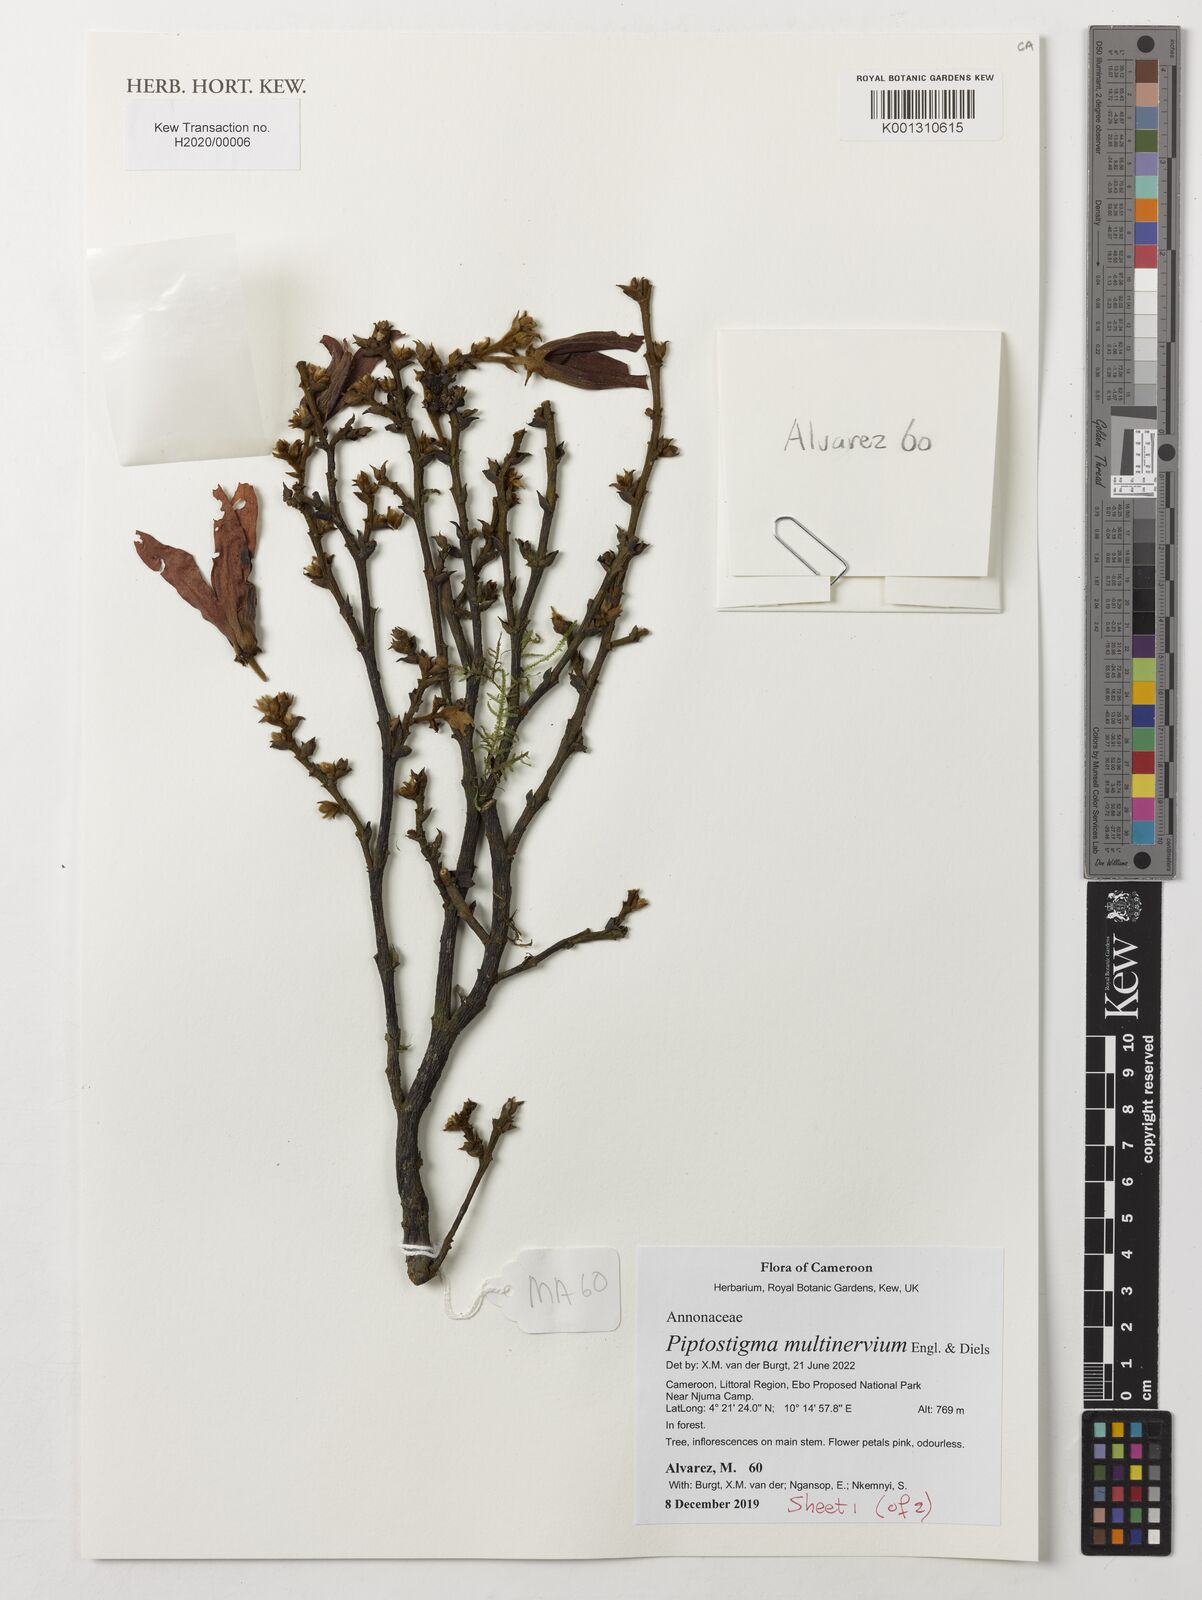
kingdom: Plantae
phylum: Tracheophyta
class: Magnoliopsida
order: Magnoliales
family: Annonaceae
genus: Piptostigma
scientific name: Piptostigma multinervium
